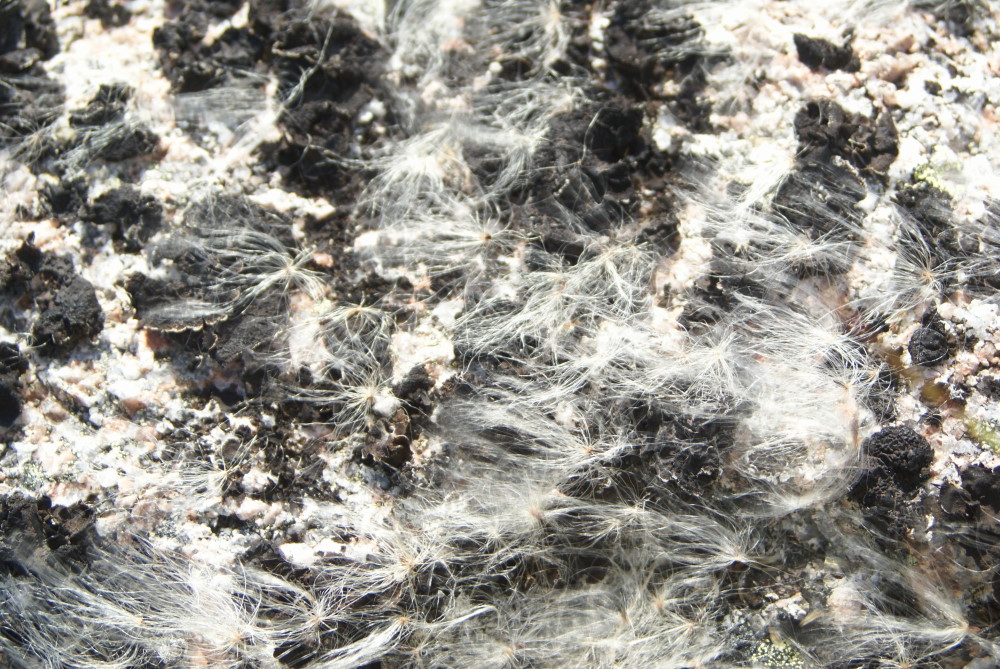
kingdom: Plantae
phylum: Tracheophyta
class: Liliopsida
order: Poales
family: Cyperaceae
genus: Eriophorum
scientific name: Eriophorum vaginatum
